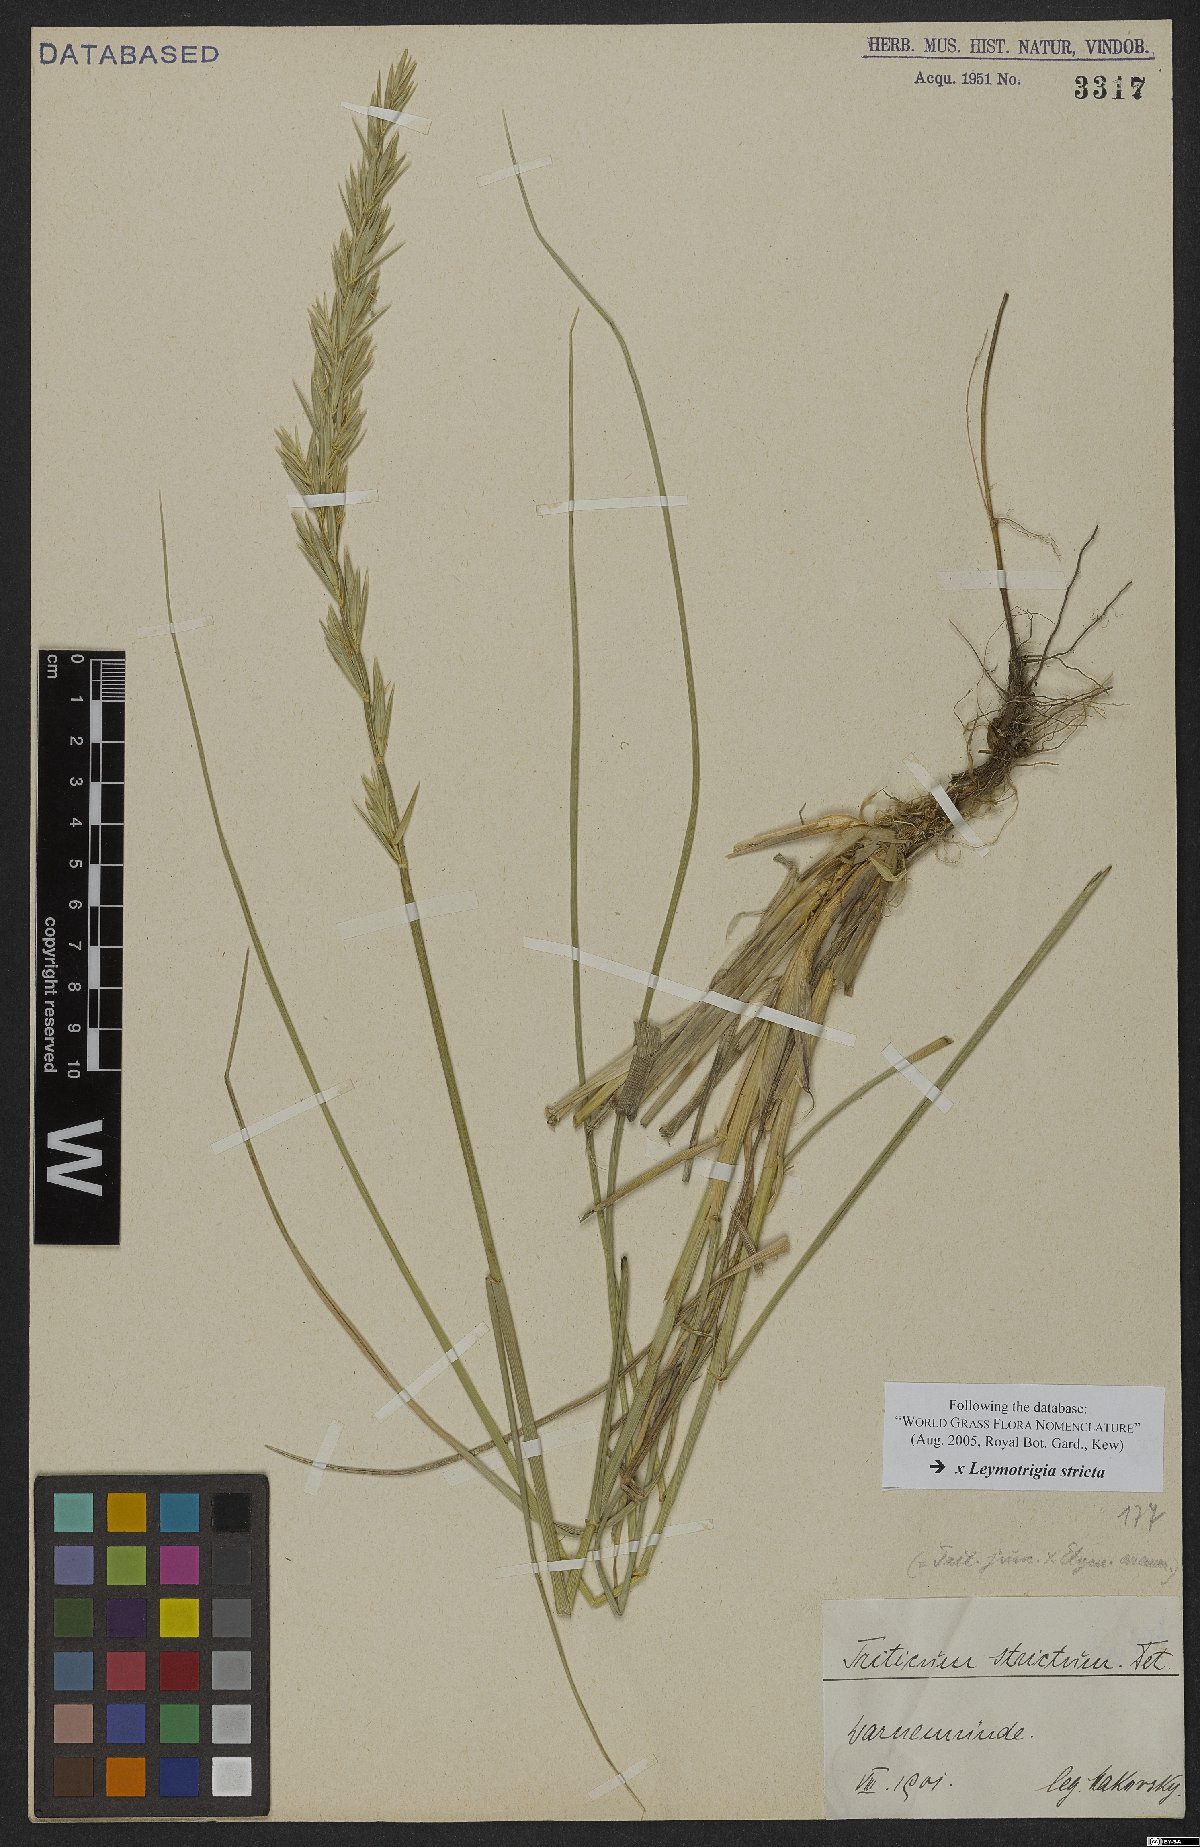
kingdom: Plantae
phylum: Tracheophyta
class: Liliopsida
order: Poales
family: Poaceae
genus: Elyleymus
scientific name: Elyleymus strictus
